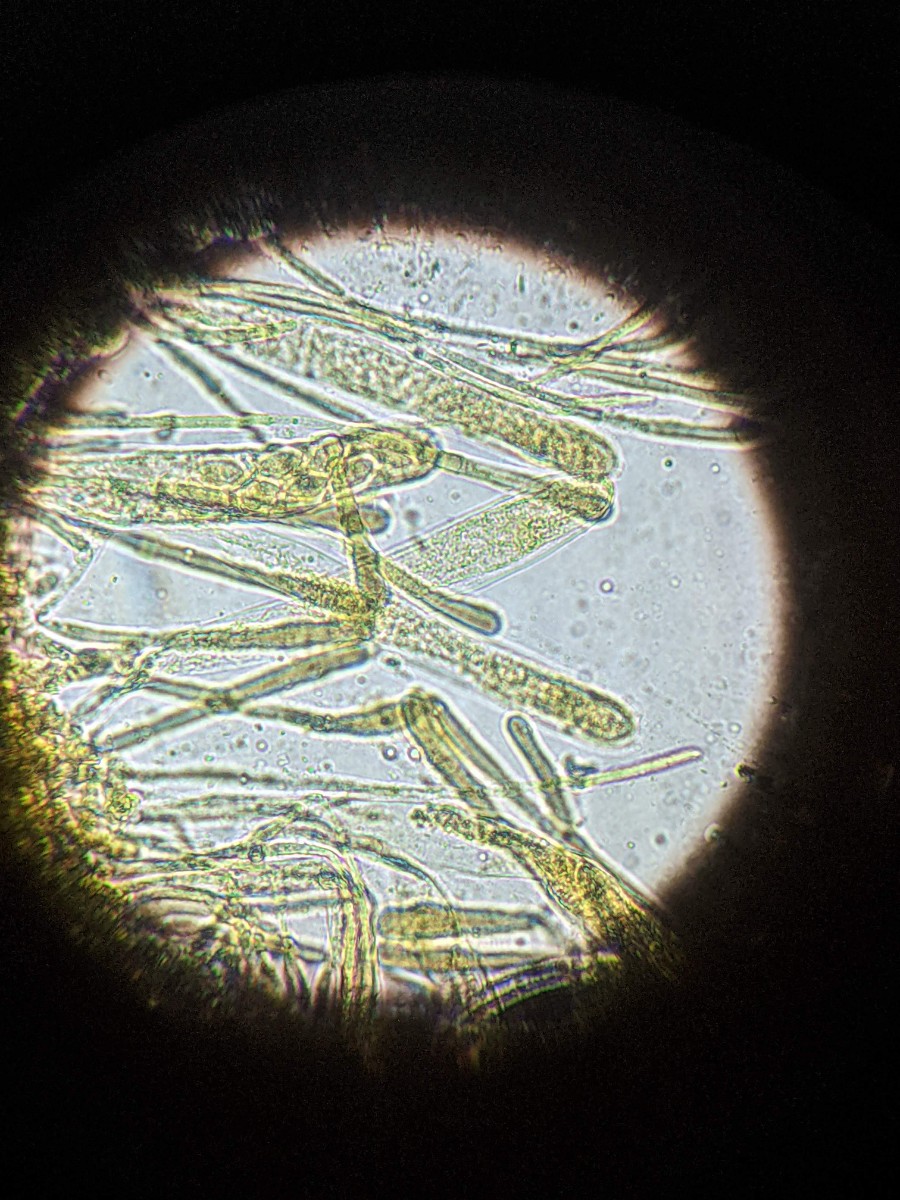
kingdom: Fungi
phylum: Ascomycota
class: Pezizomycetes
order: Pezizales
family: Pyronemataceae
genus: Miladina
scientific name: Miladina lecithina
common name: vandbæger
